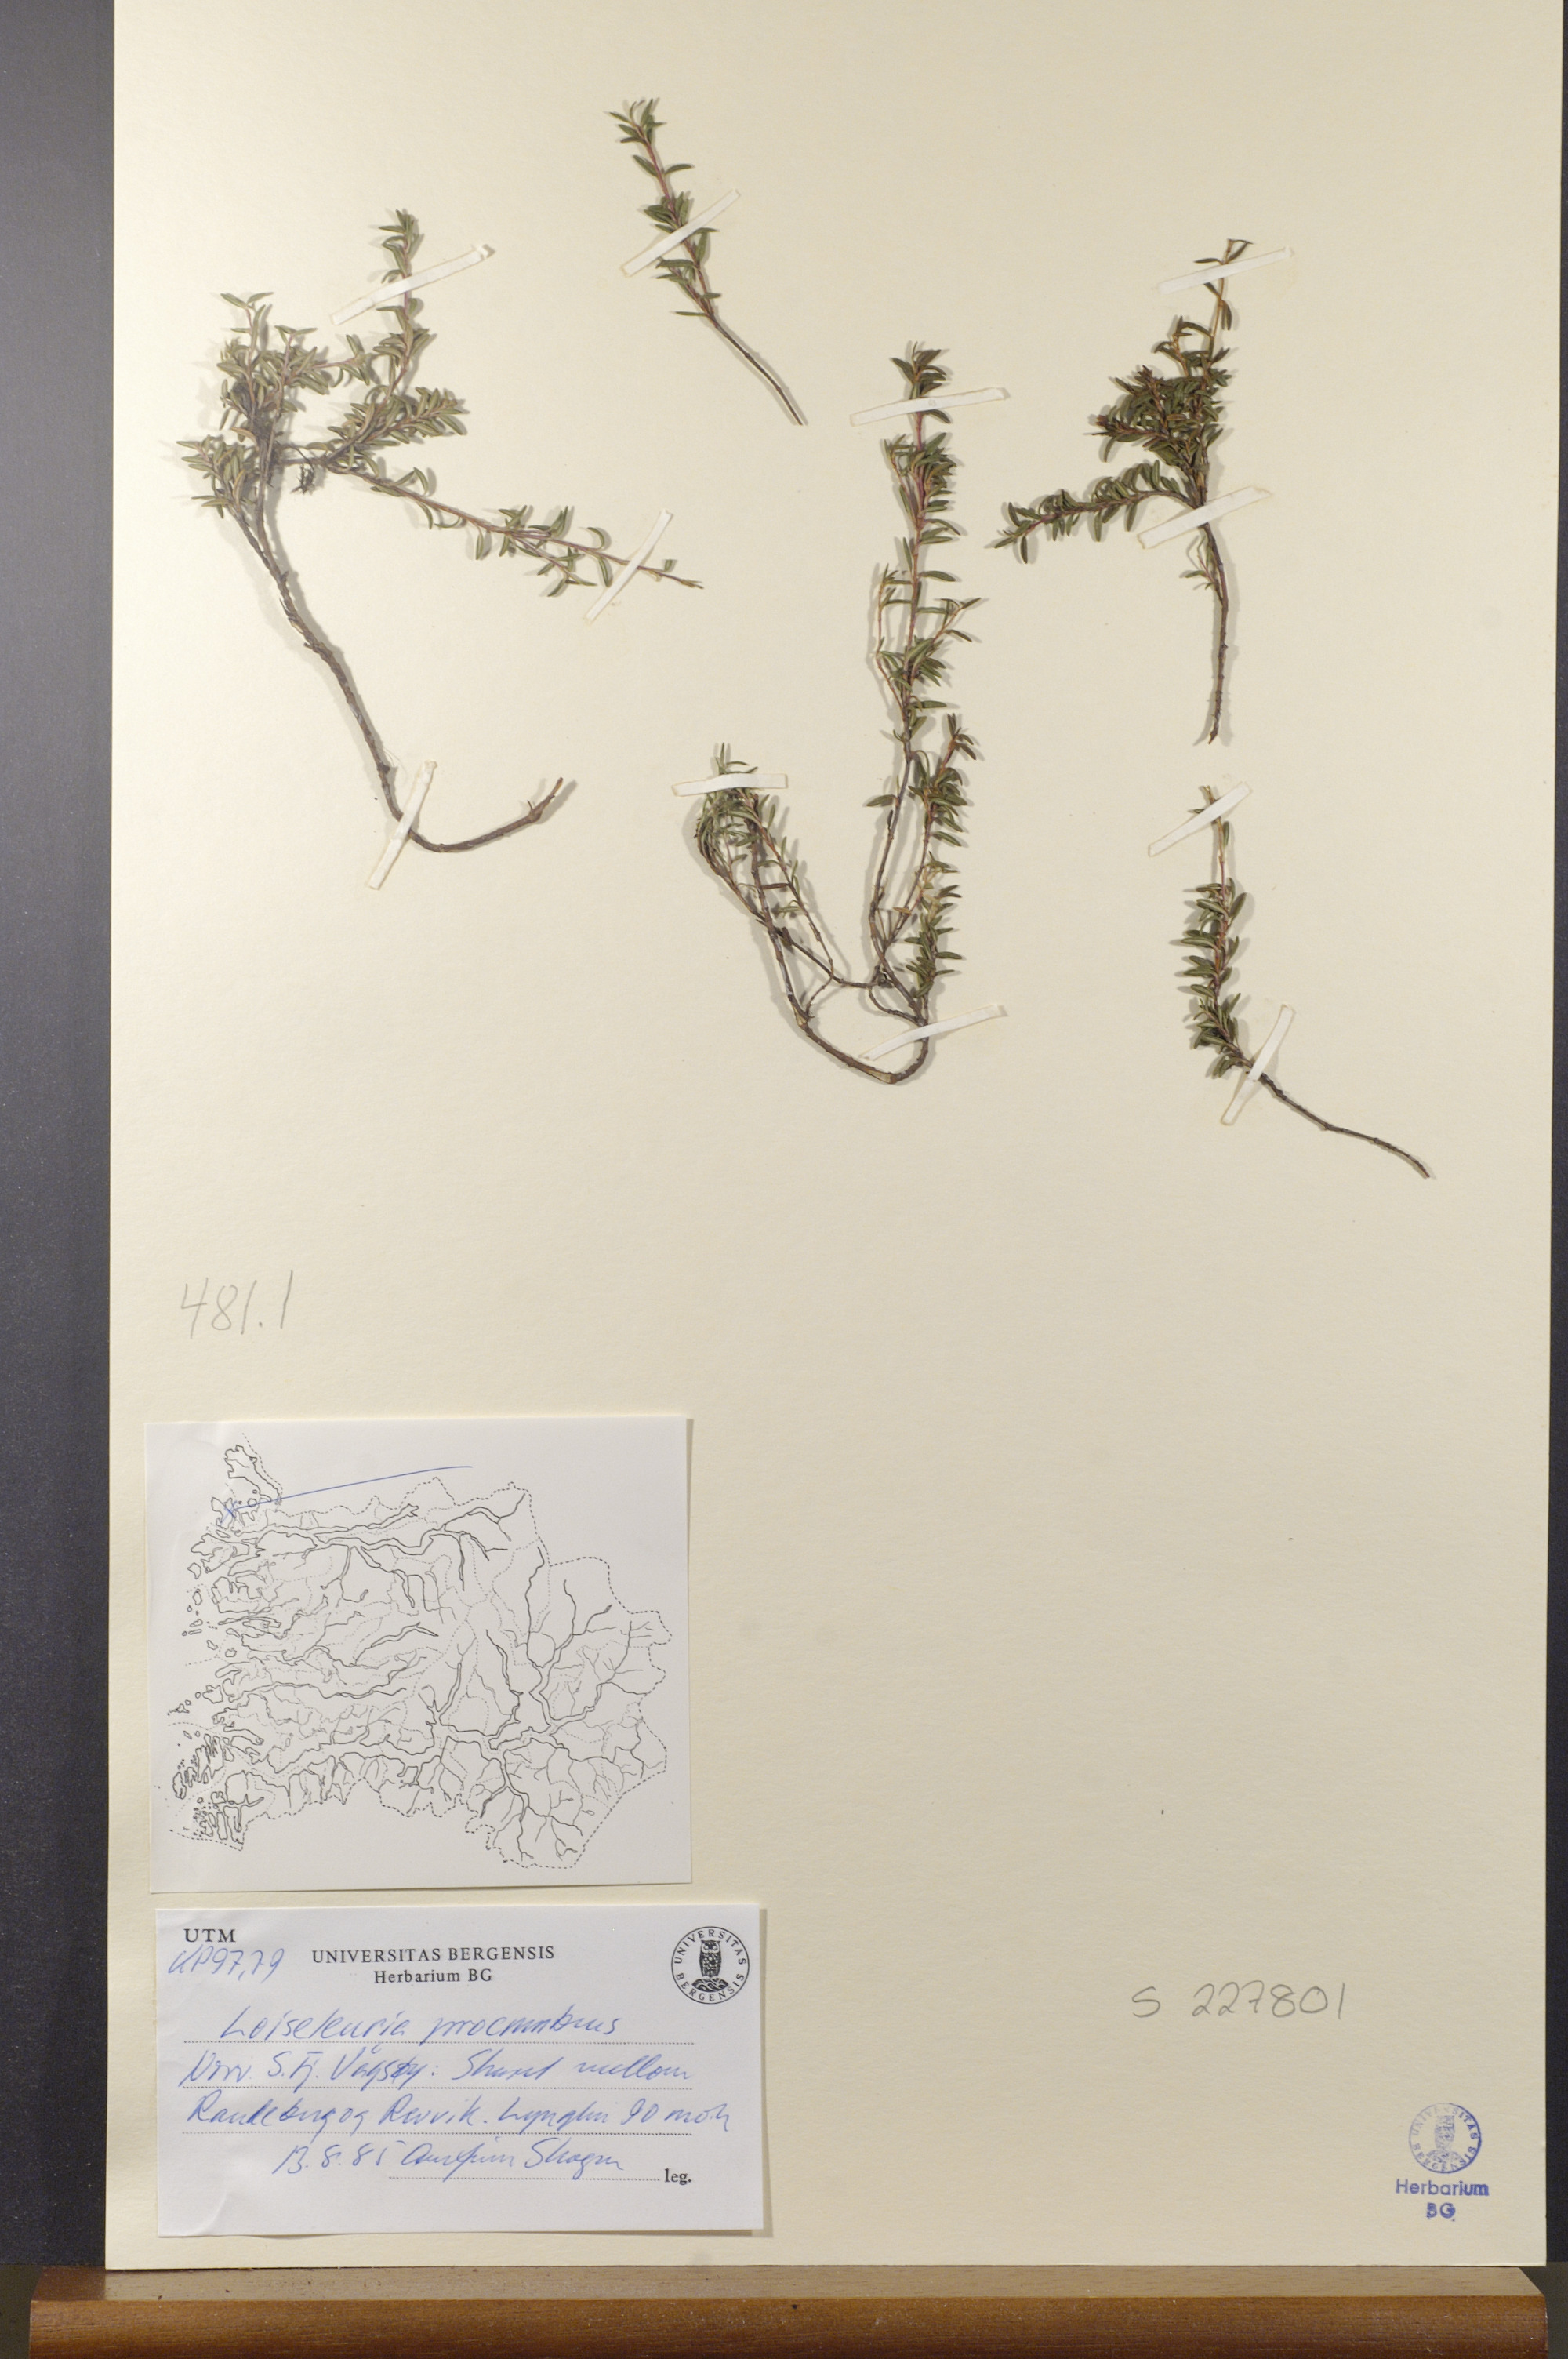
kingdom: Plantae
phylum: Tracheophyta
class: Magnoliopsida
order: Ericales
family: Ericaceae
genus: Kalmia
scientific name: Kalmia procumbens
